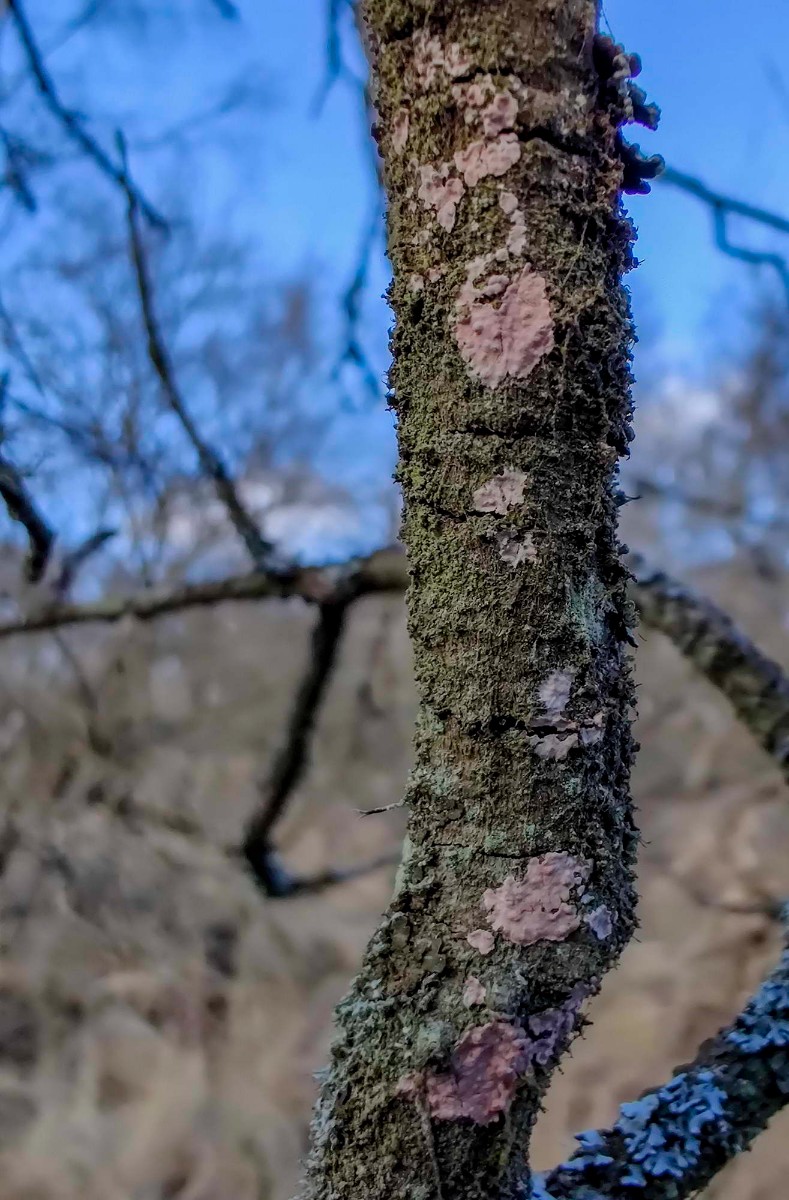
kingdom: Fungi
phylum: Basidiomycota
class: Agaricomycetes
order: Corticiales
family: Corticiaceae
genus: Corticium
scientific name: Corticium roseum
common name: rosa barkskind
